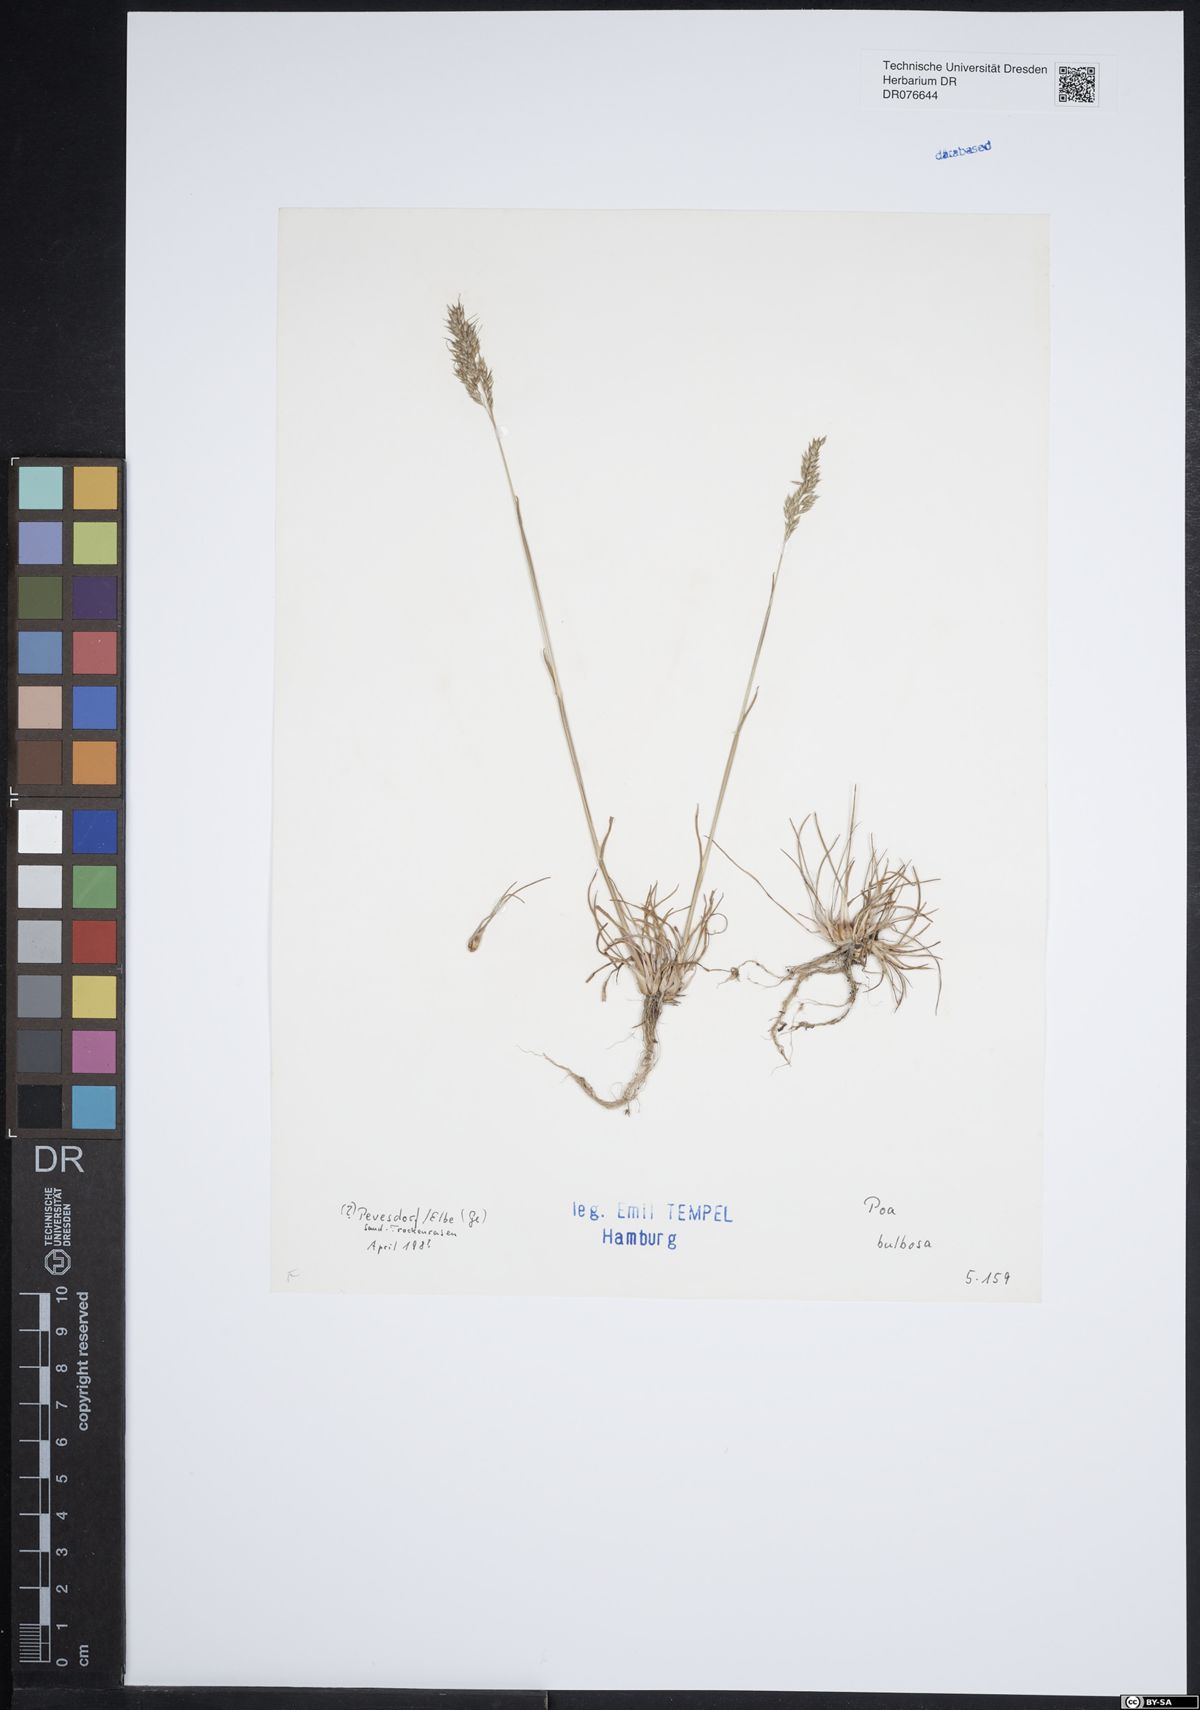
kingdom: Plantae
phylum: Tracheophyta
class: Liliopsida
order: Poales
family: Poaceae
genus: Poa
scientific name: Poa bulbosa
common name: Bulbous bluegrass
